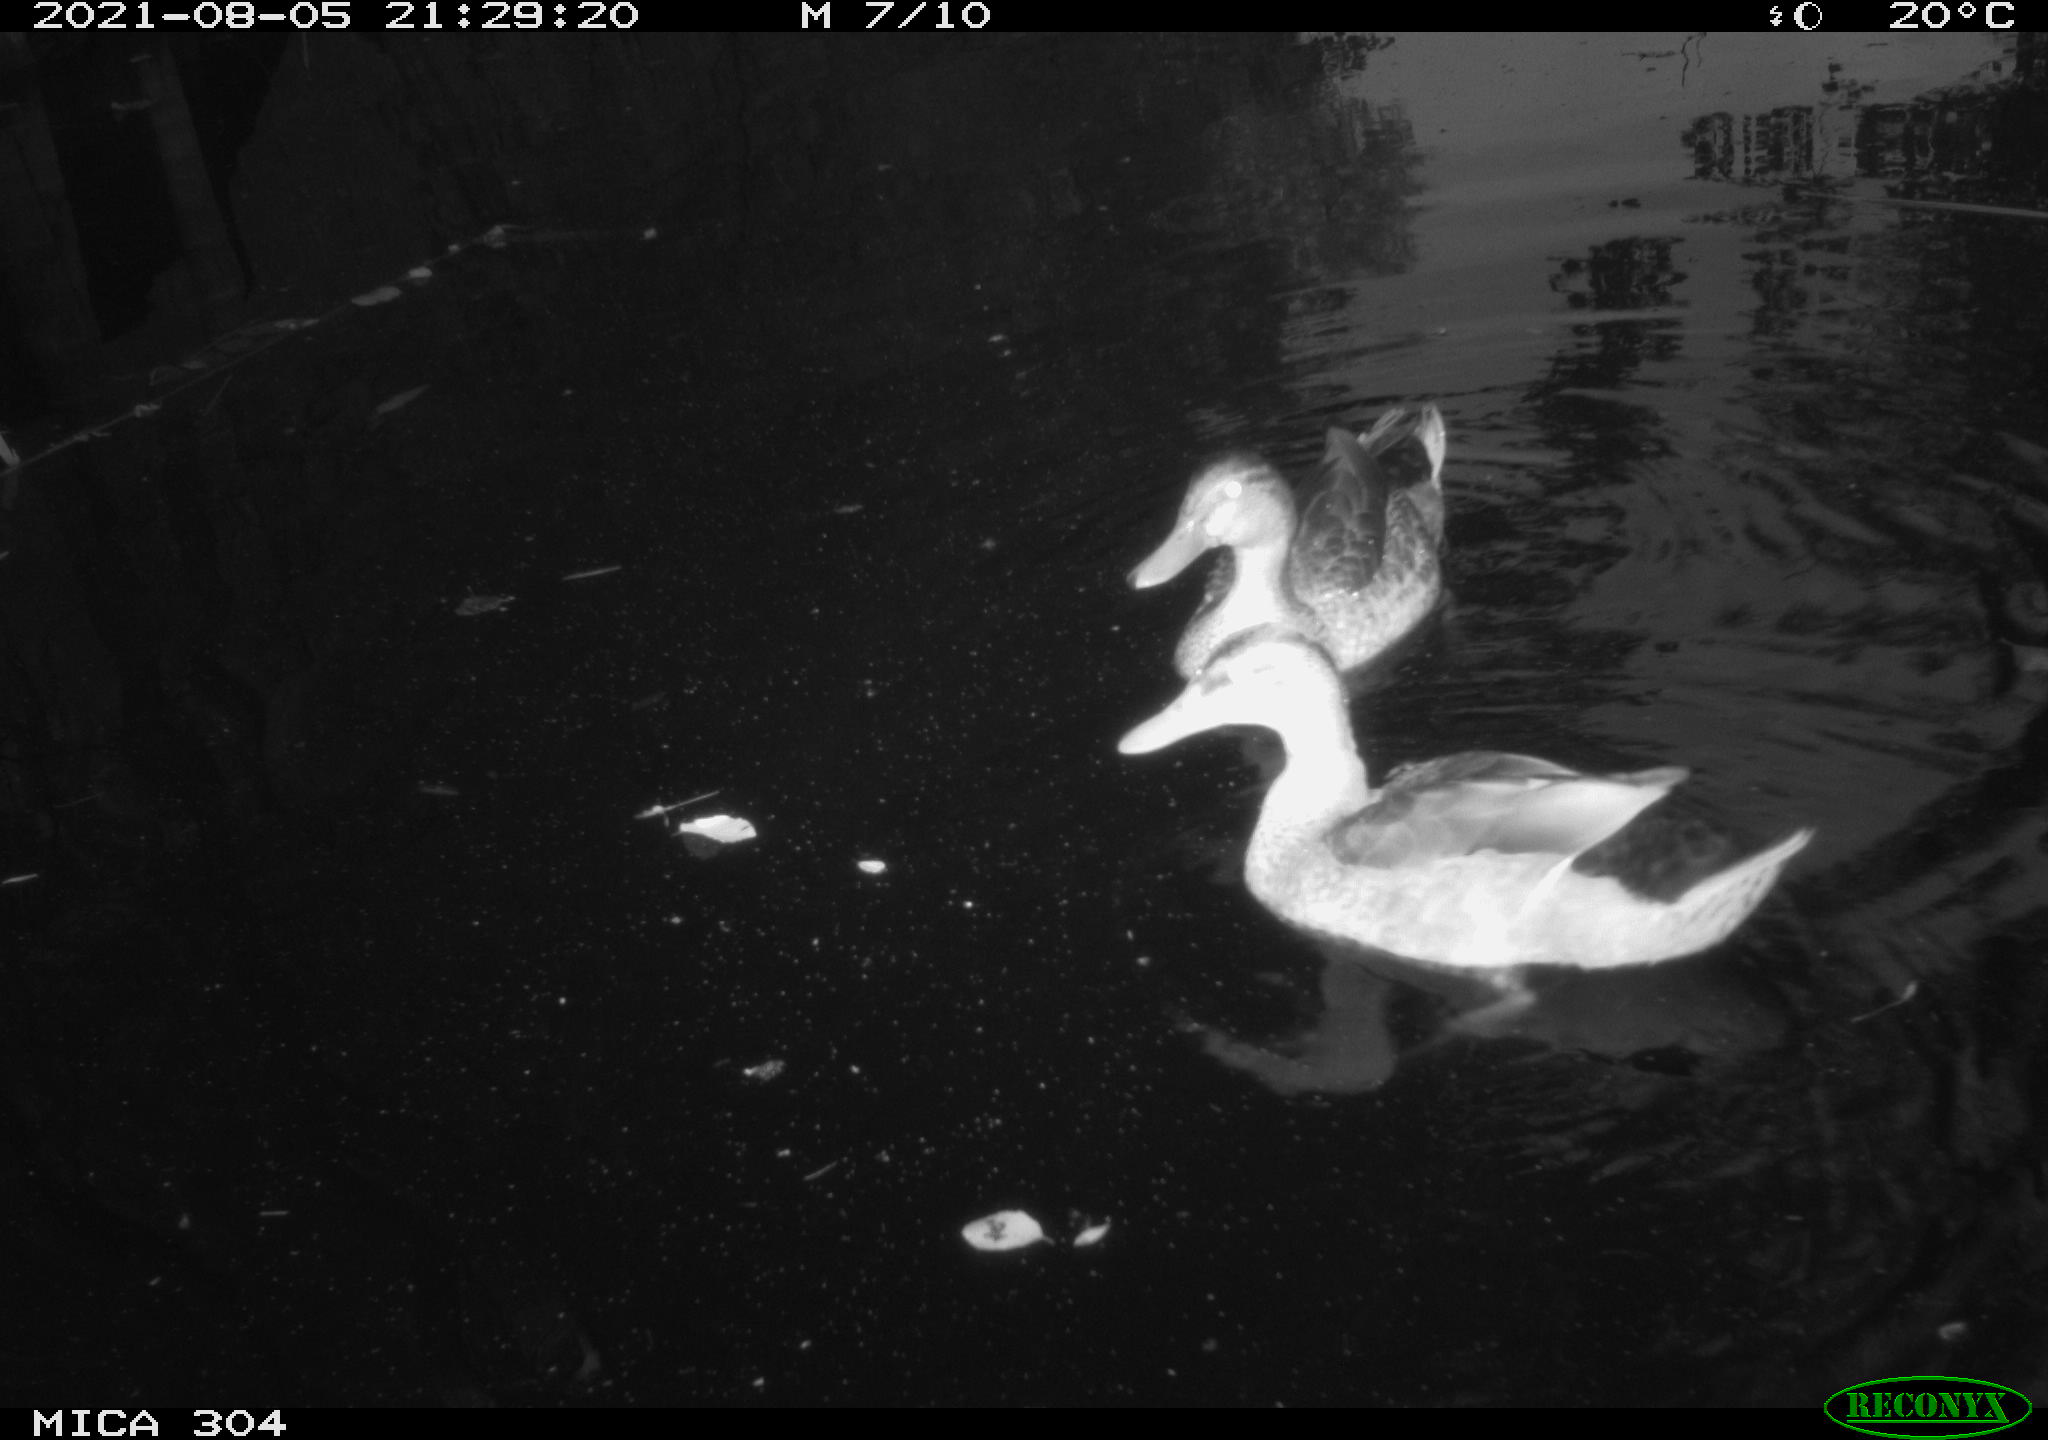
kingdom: Animalia
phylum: Chordata
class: Aves
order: Anseriformes
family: Anatidae
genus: Anas
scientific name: Anas platyrhynchos
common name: Mallard
